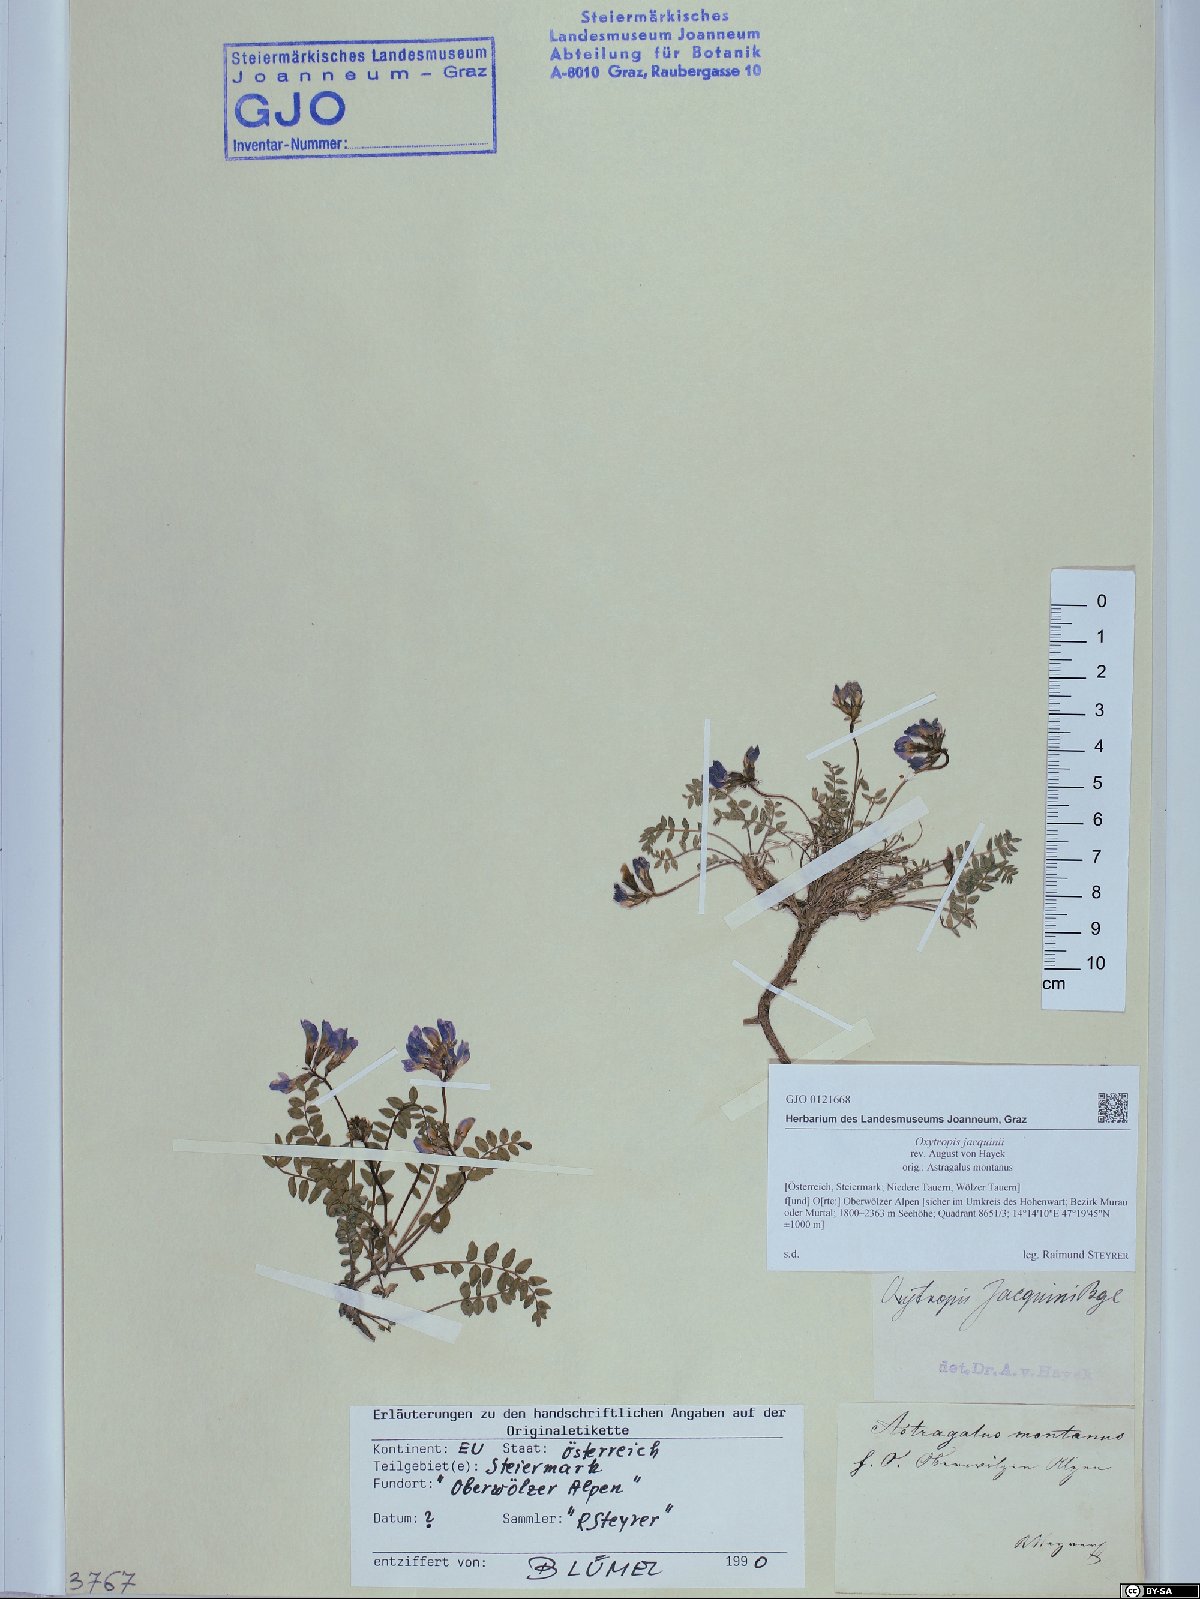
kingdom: Plantae
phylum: Tracheophyta
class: Magnoliopsida
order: Fabales
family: Fabaceae
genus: Oxytropis
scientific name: Oxytropis montana
